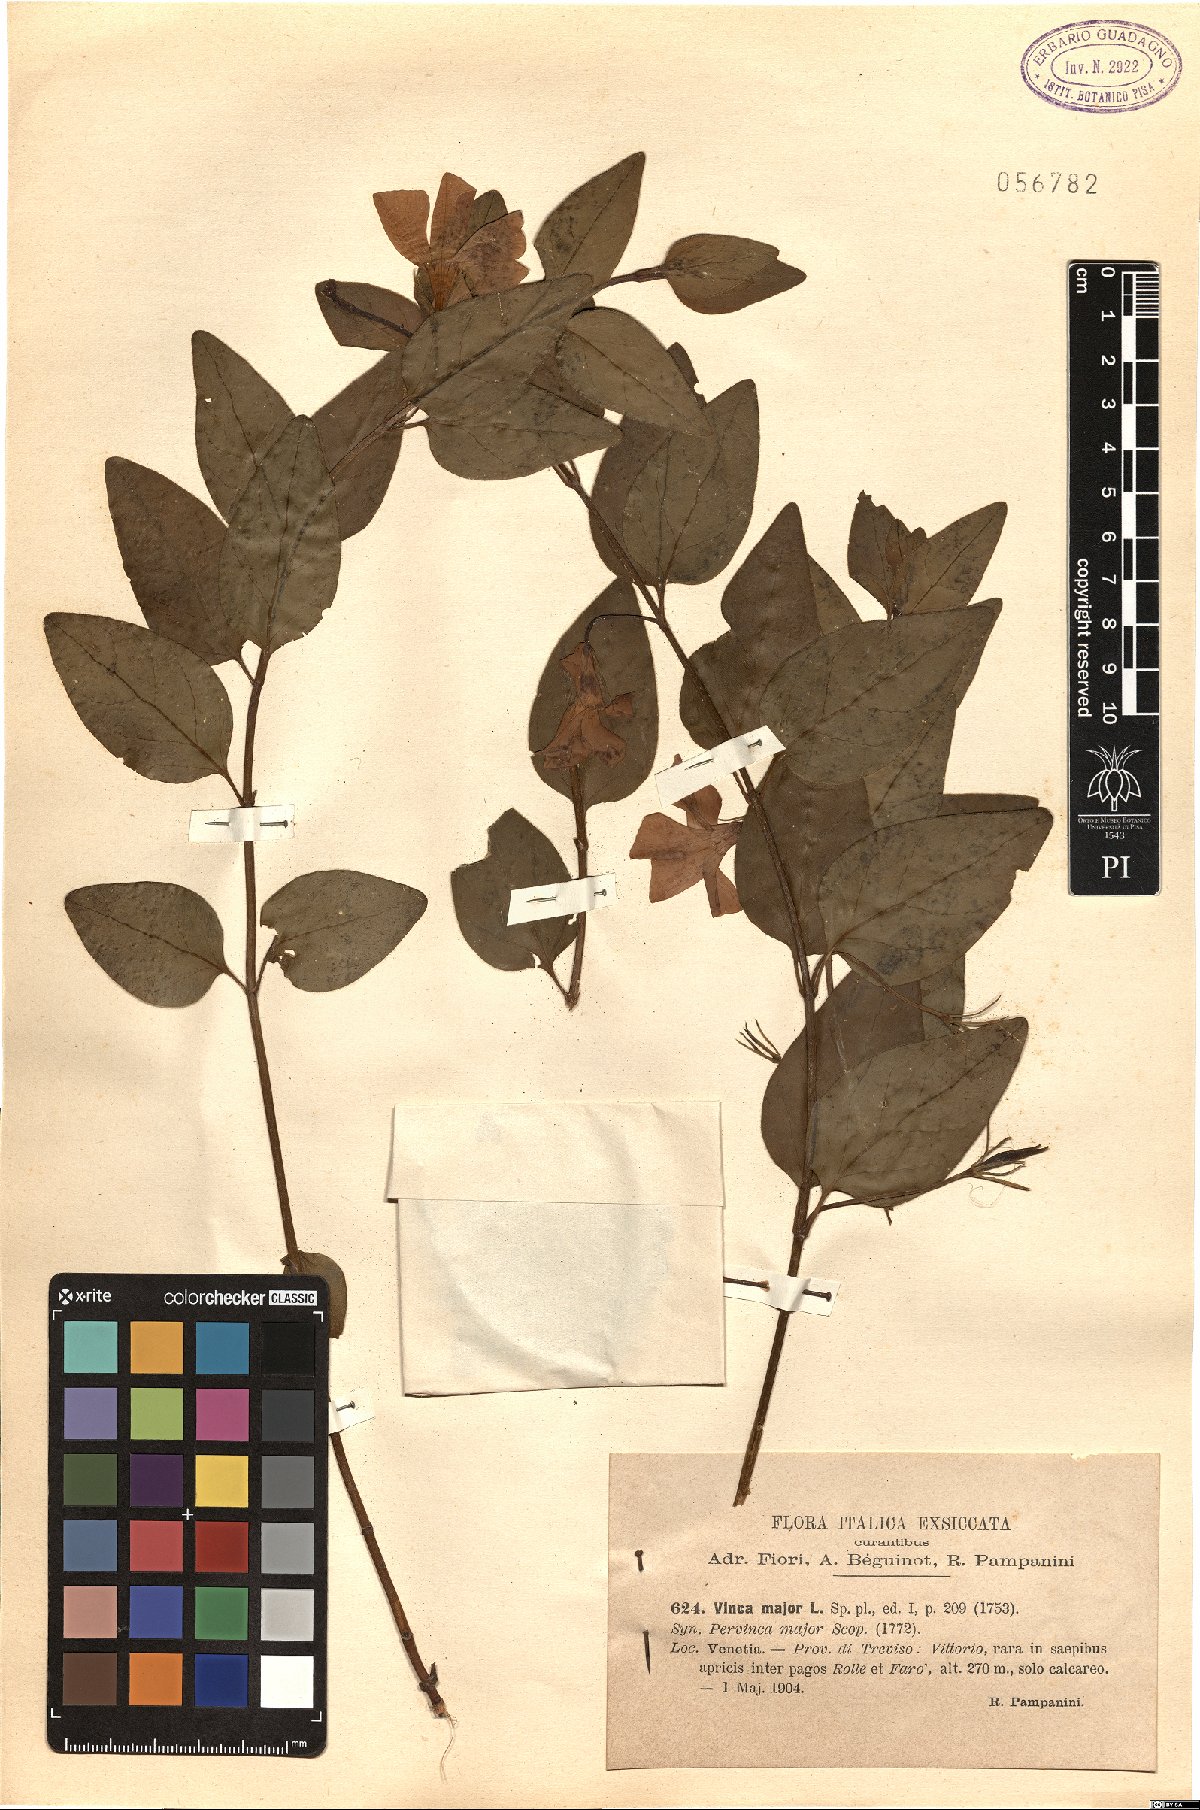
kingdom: Plantae
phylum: Tracheophyta
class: Magnoliopsida
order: Gentianales
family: Apocynaceae
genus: Vinca
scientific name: Vinca major
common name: Greater periwinkle
